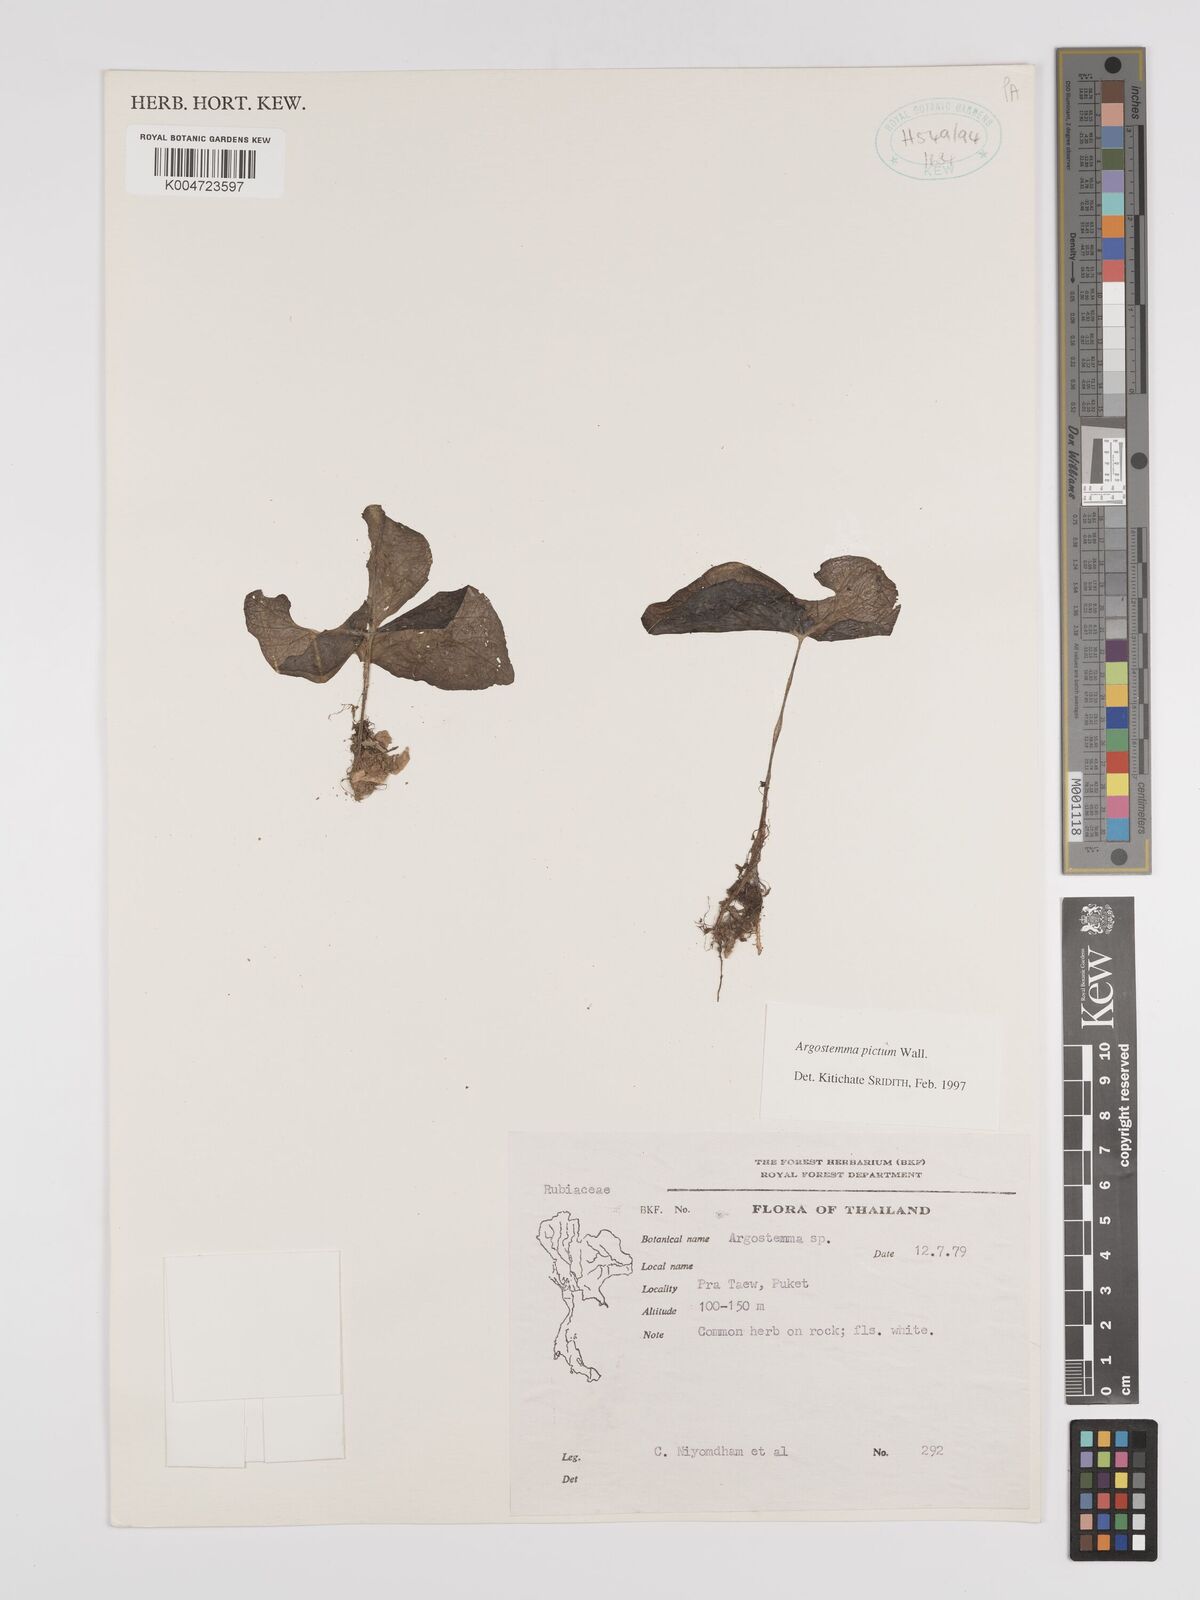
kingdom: Plantae
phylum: Tracheophyta
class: Magnoliopsida
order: Gentianales
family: Rubiaceae
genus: Argostemma
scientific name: Argostemma
